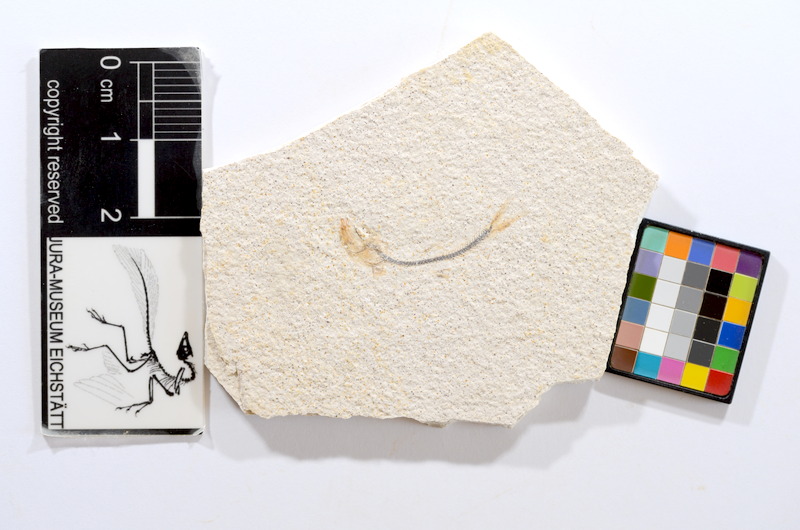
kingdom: Animalia
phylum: Chordata
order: Salmoniformes
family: Orthogonikleithridae
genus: Orthogonikleithrus
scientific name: Orthogonikleithrus hoelli
